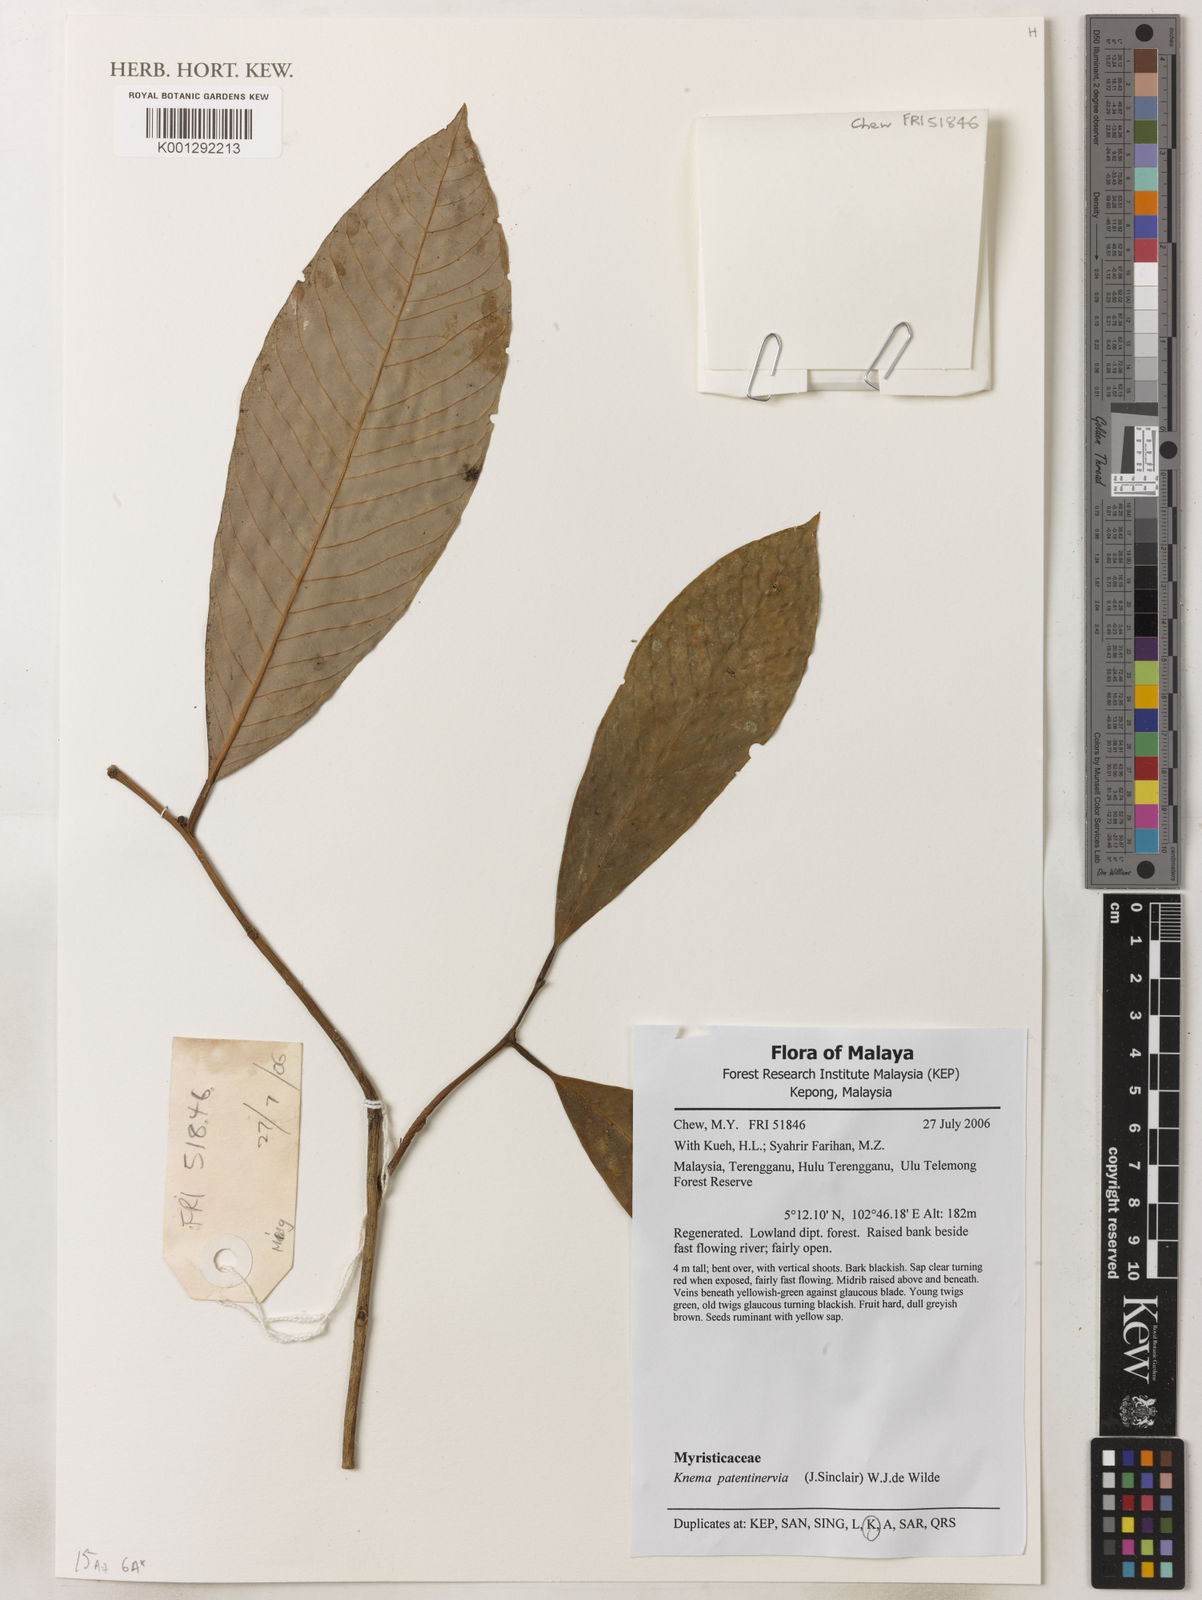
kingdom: Plantae
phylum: Tracheophyta
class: Magnoliopsida
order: Magnoliales
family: Myristicaceae
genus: Knema
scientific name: Knema patentinervia
